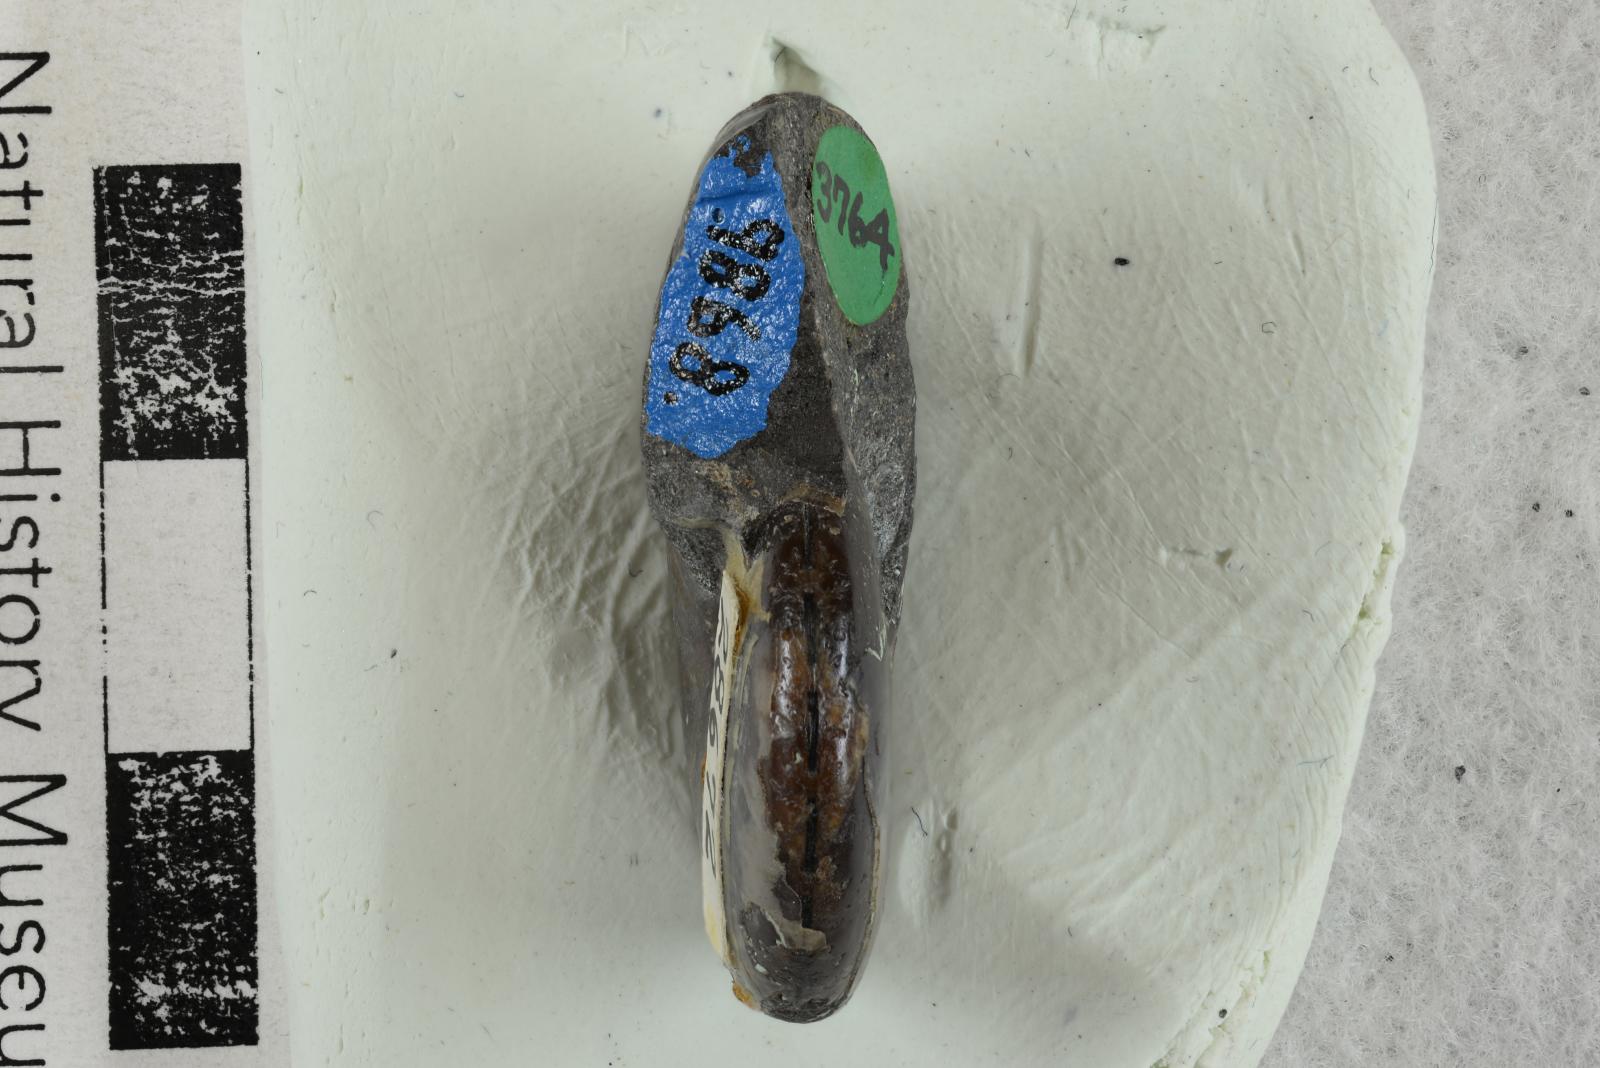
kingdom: Animalia
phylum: Mollusca
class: Cephalopoda
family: Desmoceratidae
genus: Desmoceras
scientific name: Desmoceras barryae
